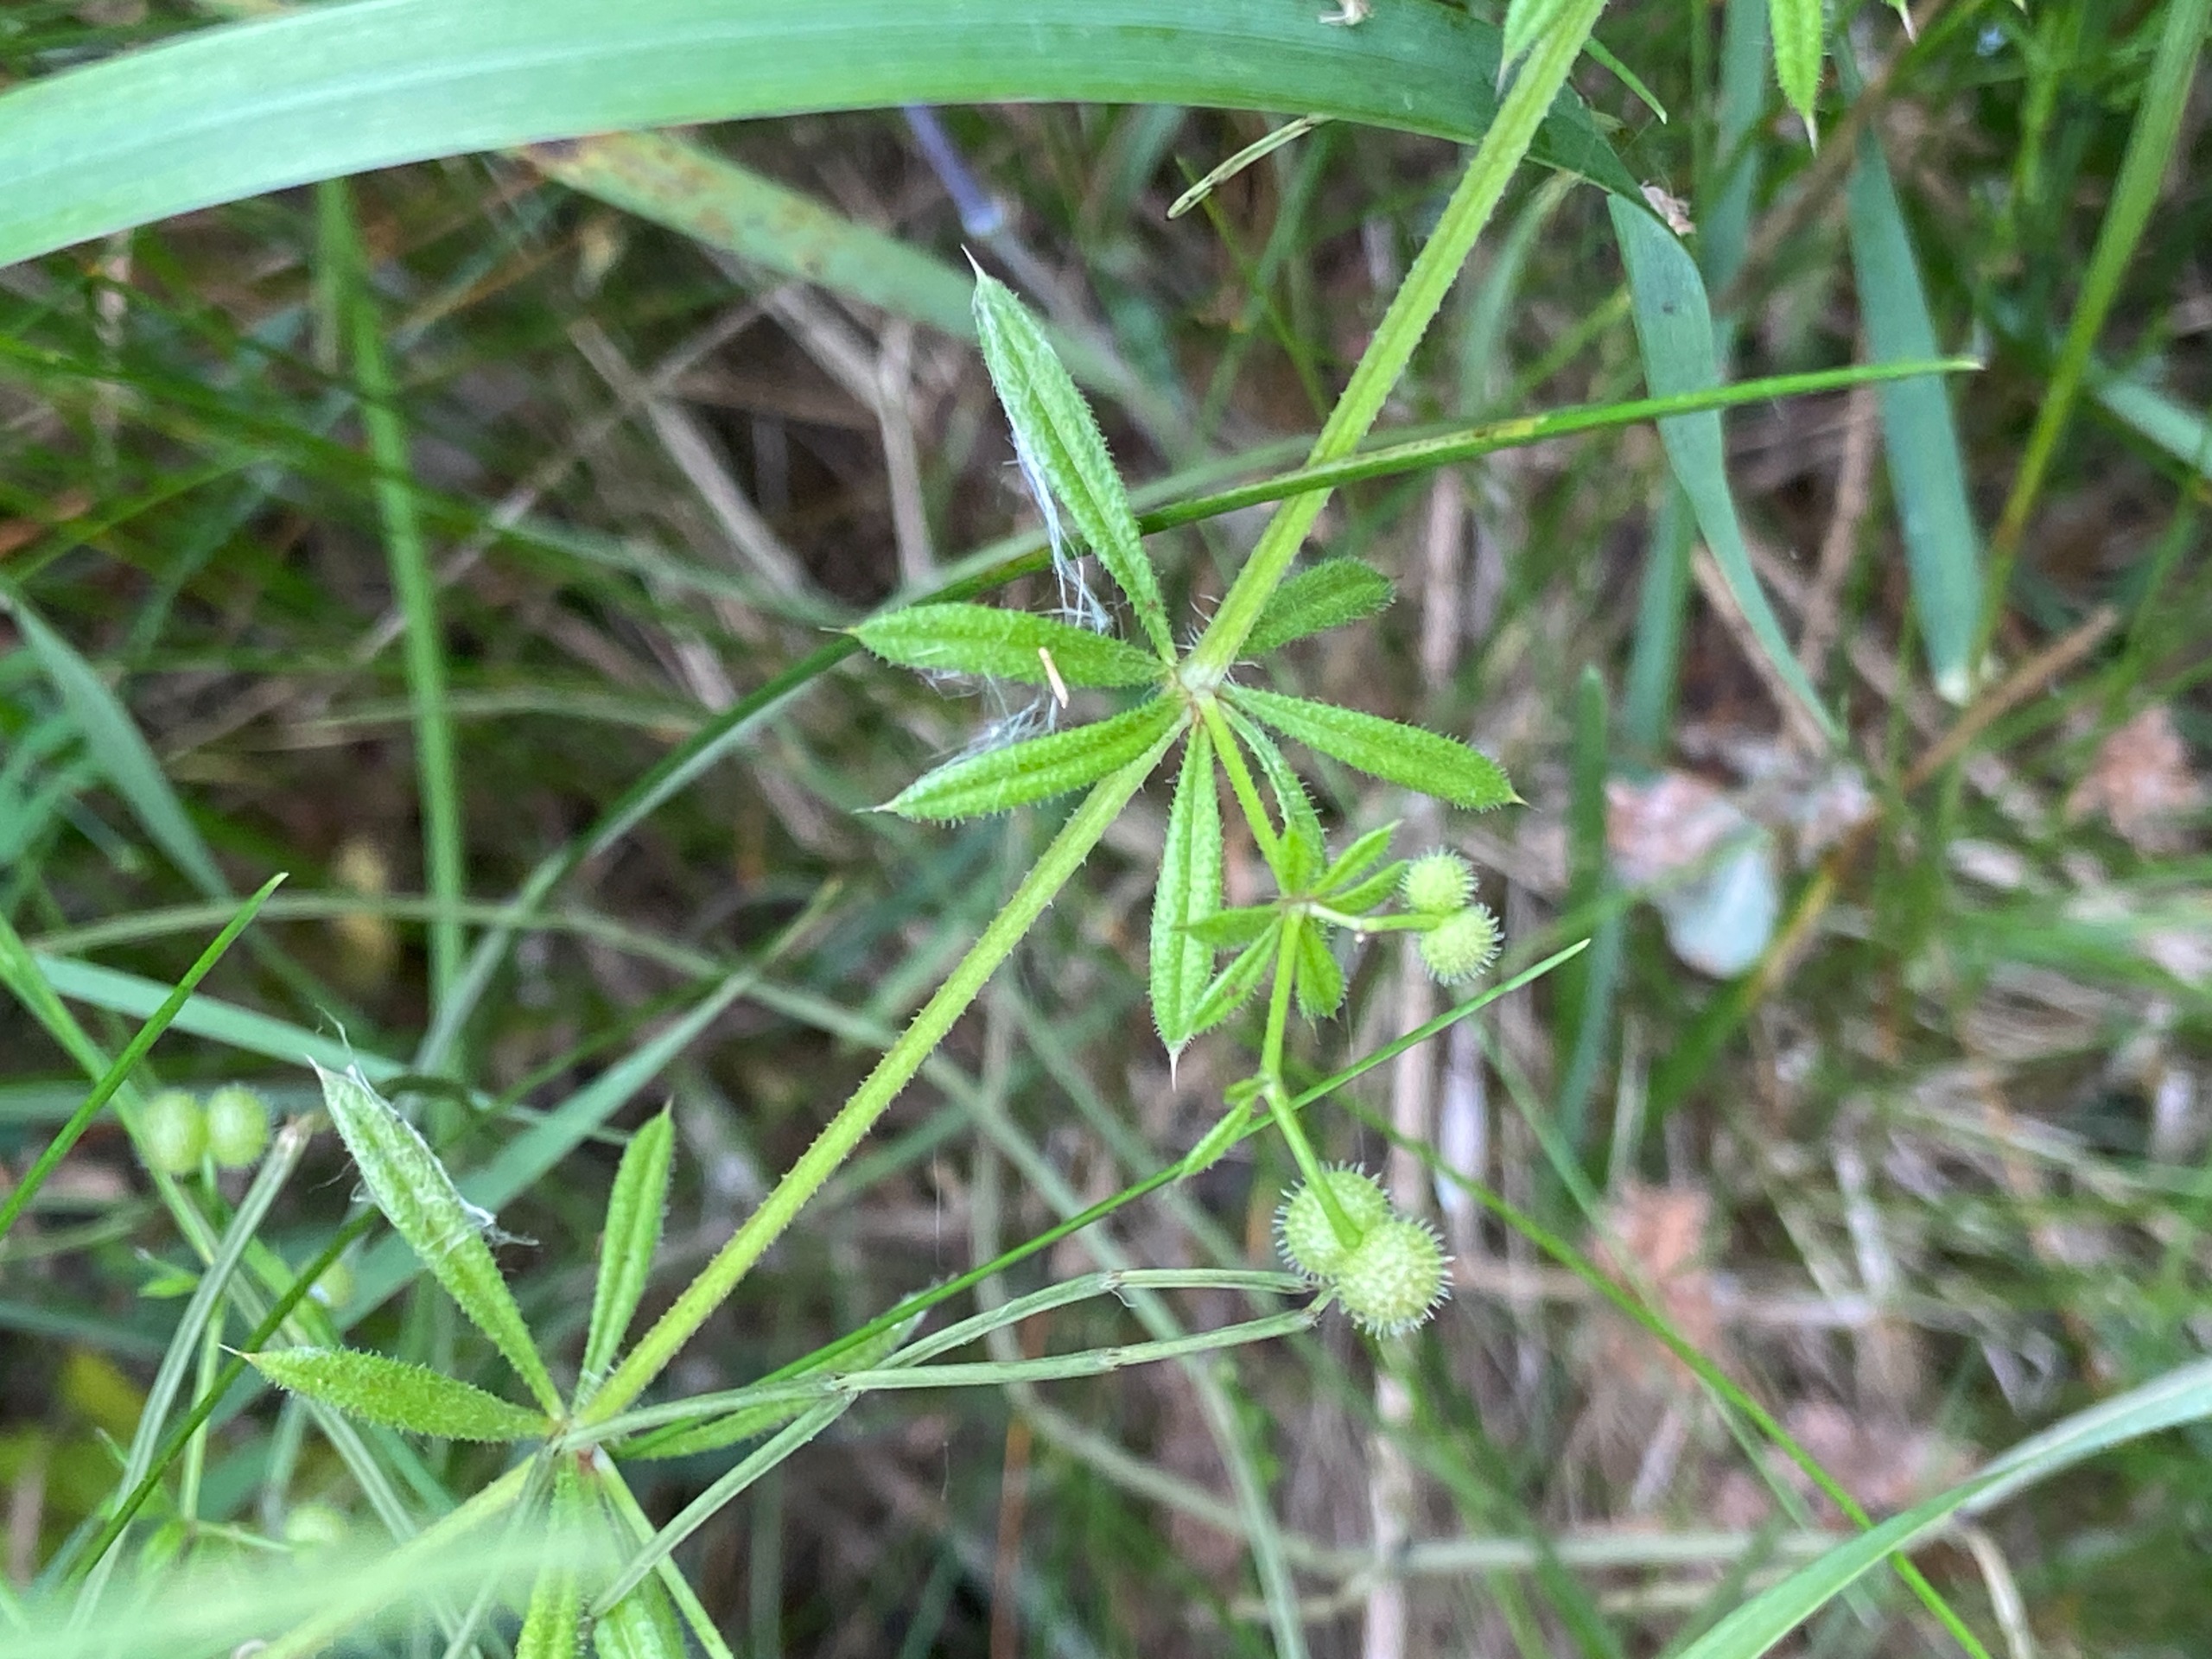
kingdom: Plantae
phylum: Tracheophyta
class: Magnoliopsida
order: Gentianales
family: Rubiaceae
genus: Galium
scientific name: Galium aparine
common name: Burre-snerre
